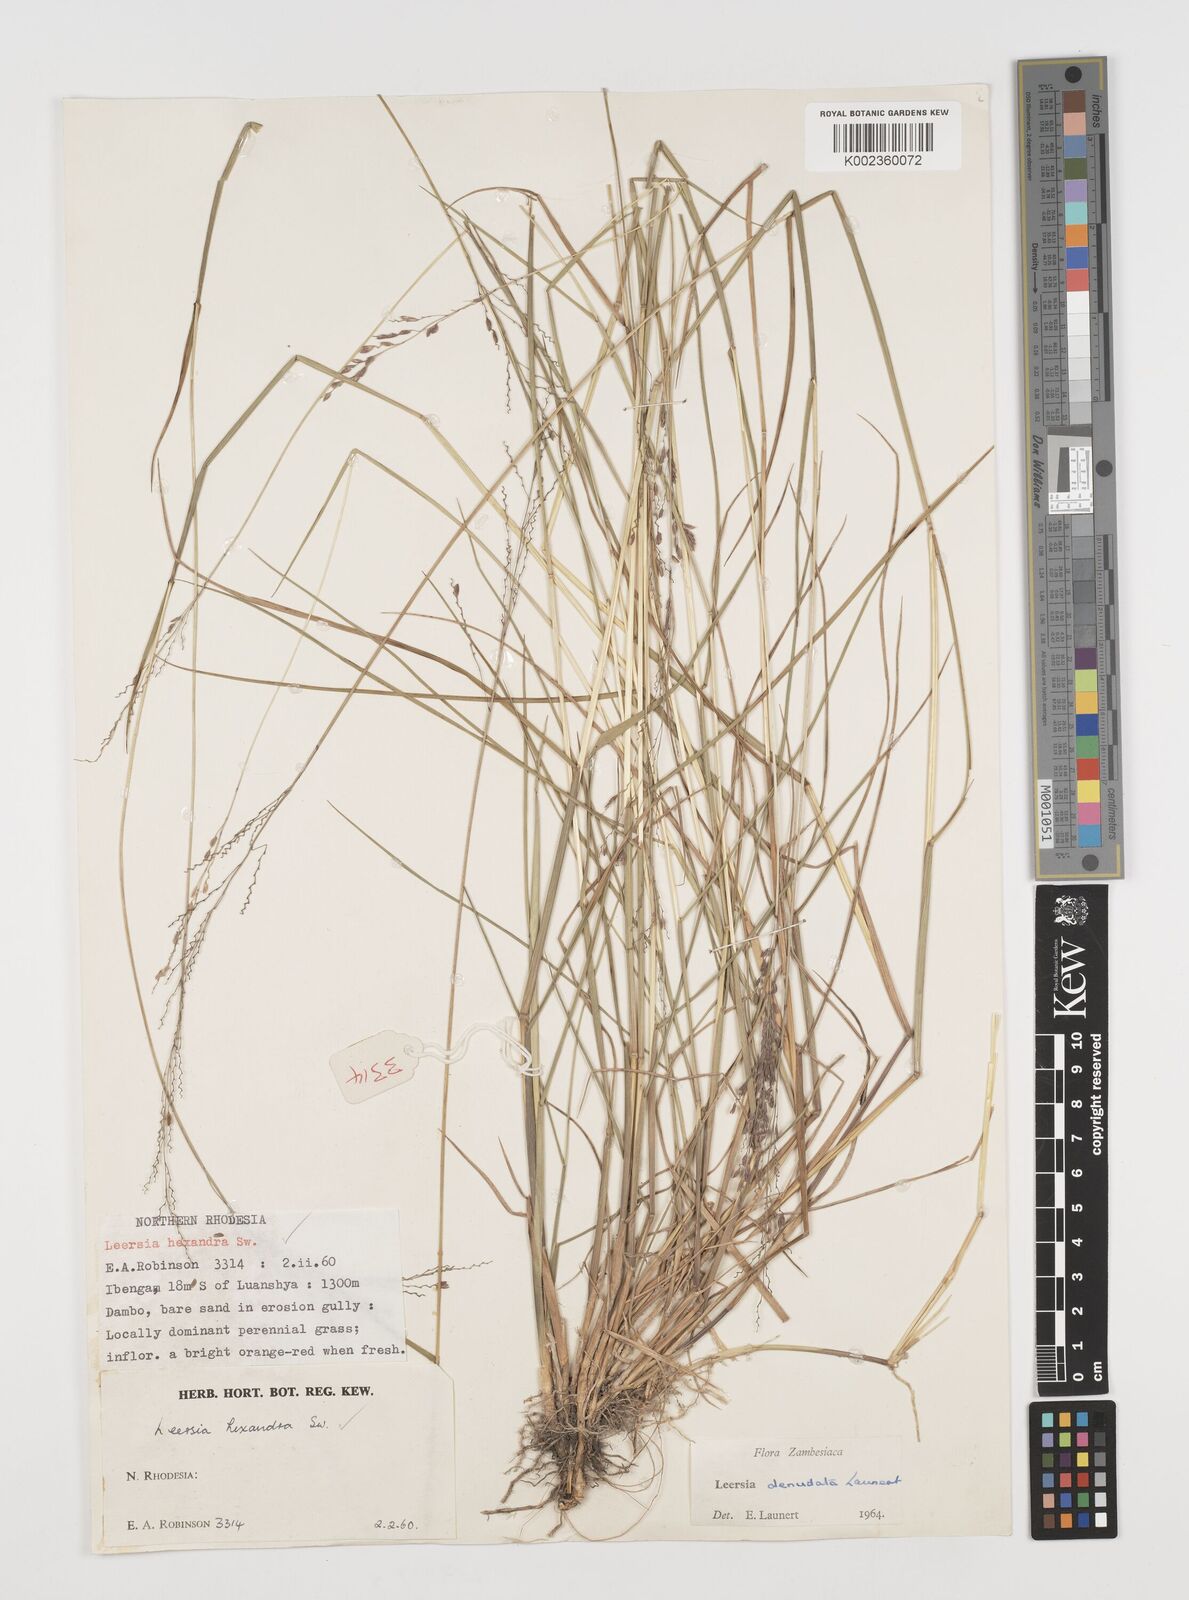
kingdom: Plantae
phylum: Tracheophyta
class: Liliopsida
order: Poales
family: Poaceae
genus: Leersia
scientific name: Leersia denudata
